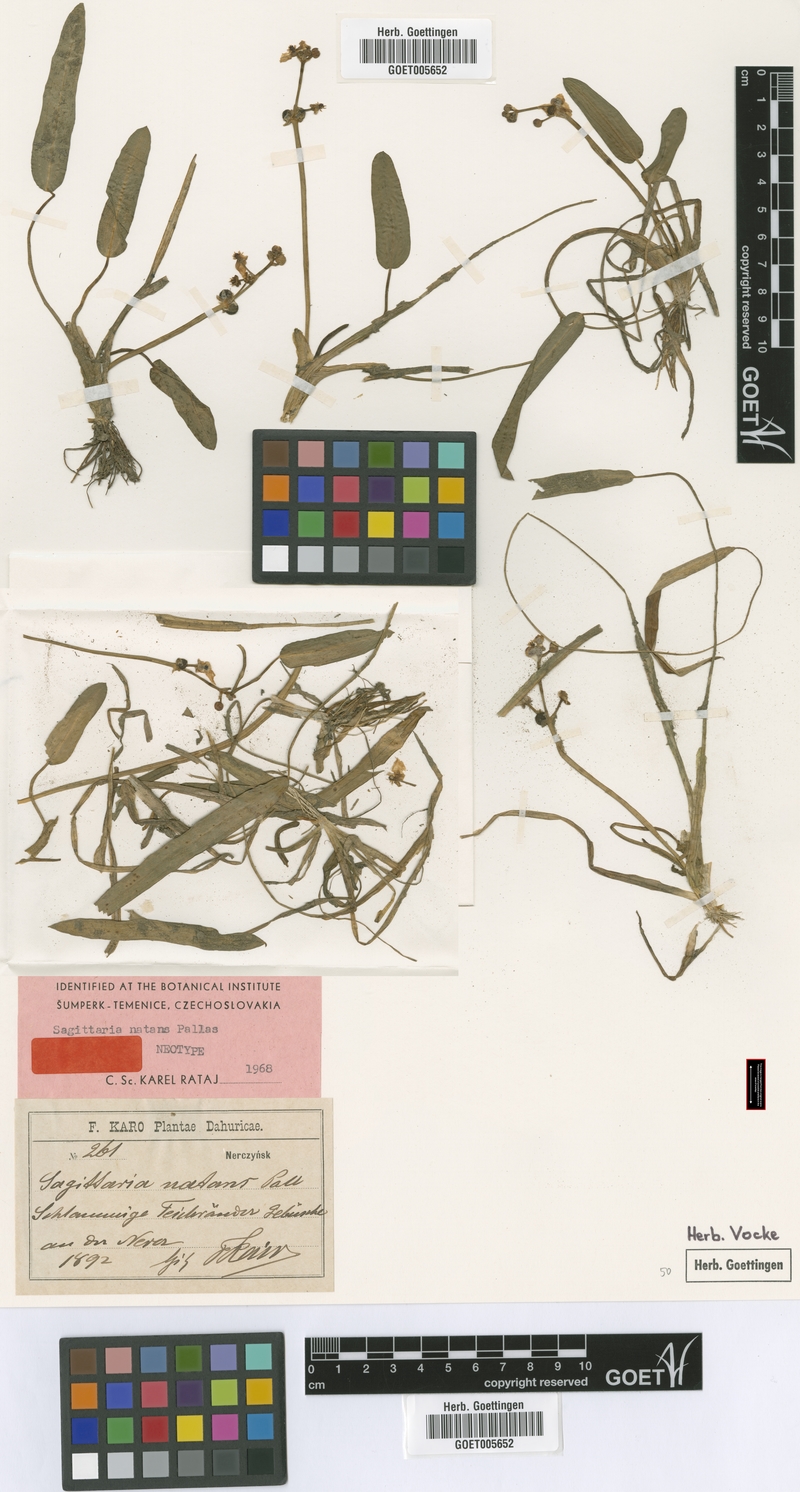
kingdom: Plantae
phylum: Tracheophyta
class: Liliopsida
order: Alismatales
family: Alismataceae
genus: Sagittaria
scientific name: Sagittaria natans
